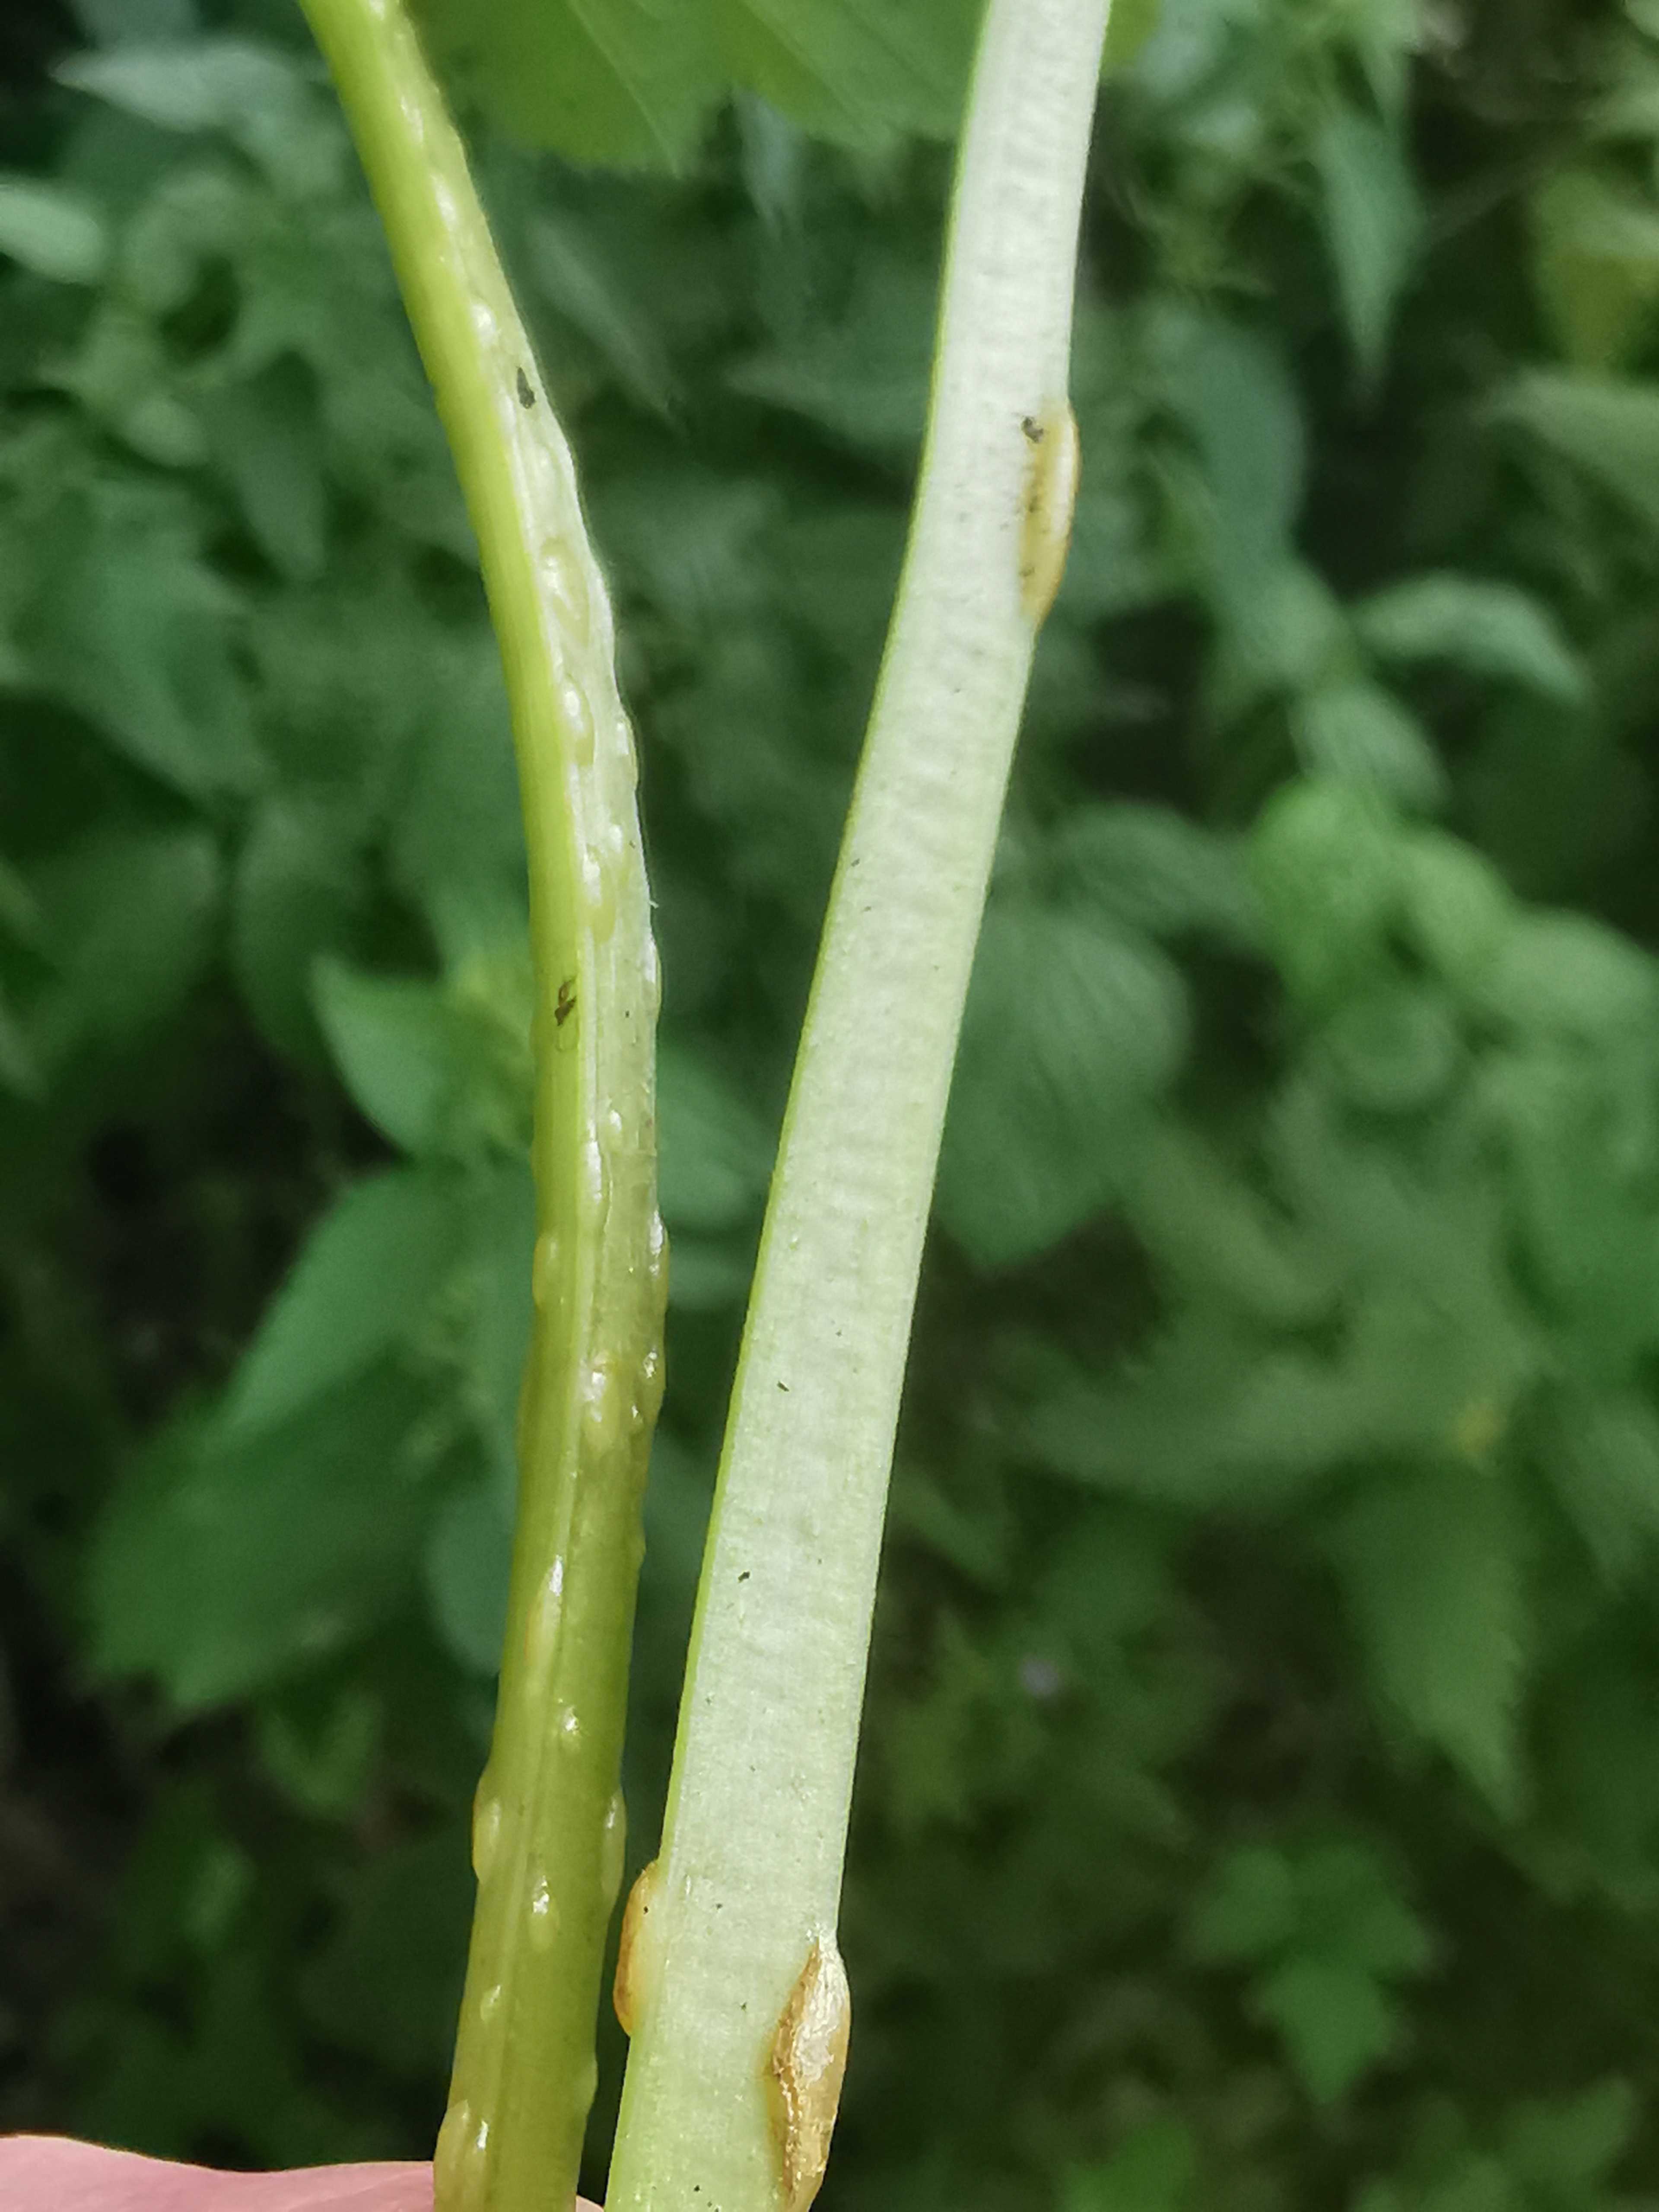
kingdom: Fungi
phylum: Ascomycota
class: Taphrinomycetes
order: Taphrinales
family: Taphrinaceae
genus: Protomyces
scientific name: Protomyces macrosporus
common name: skvalderkål-vablesæk
